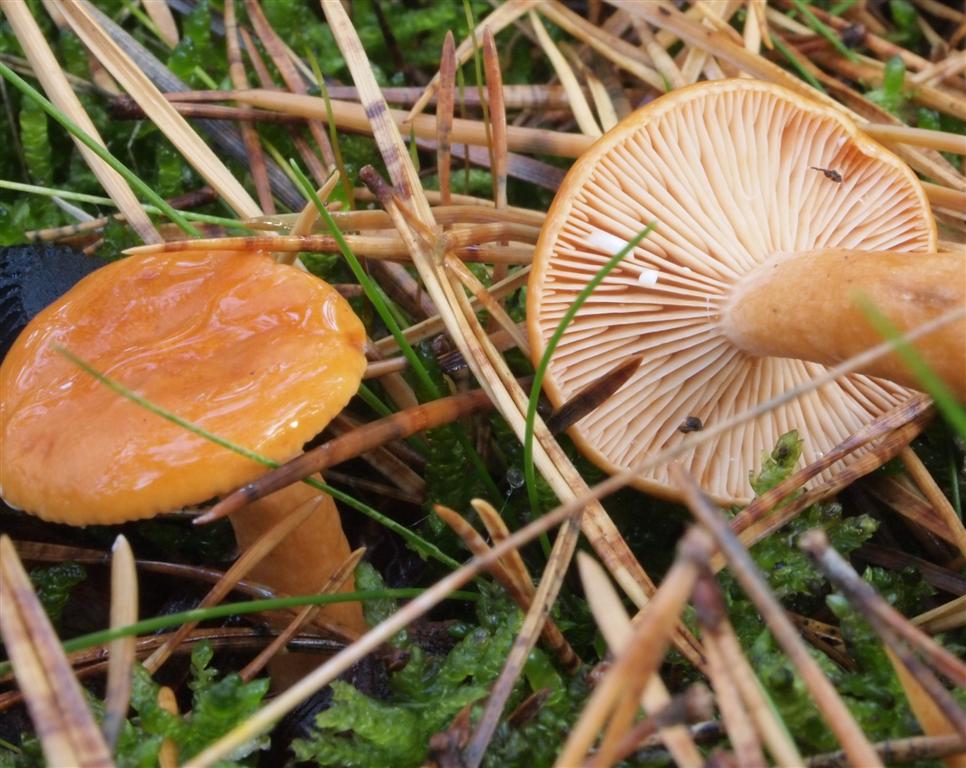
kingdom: Fungi
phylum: Basidiomycota
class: Agaricomycetes
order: Russulales
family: Russulaceae
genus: Lactarius
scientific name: Lactarius aurantiacus
